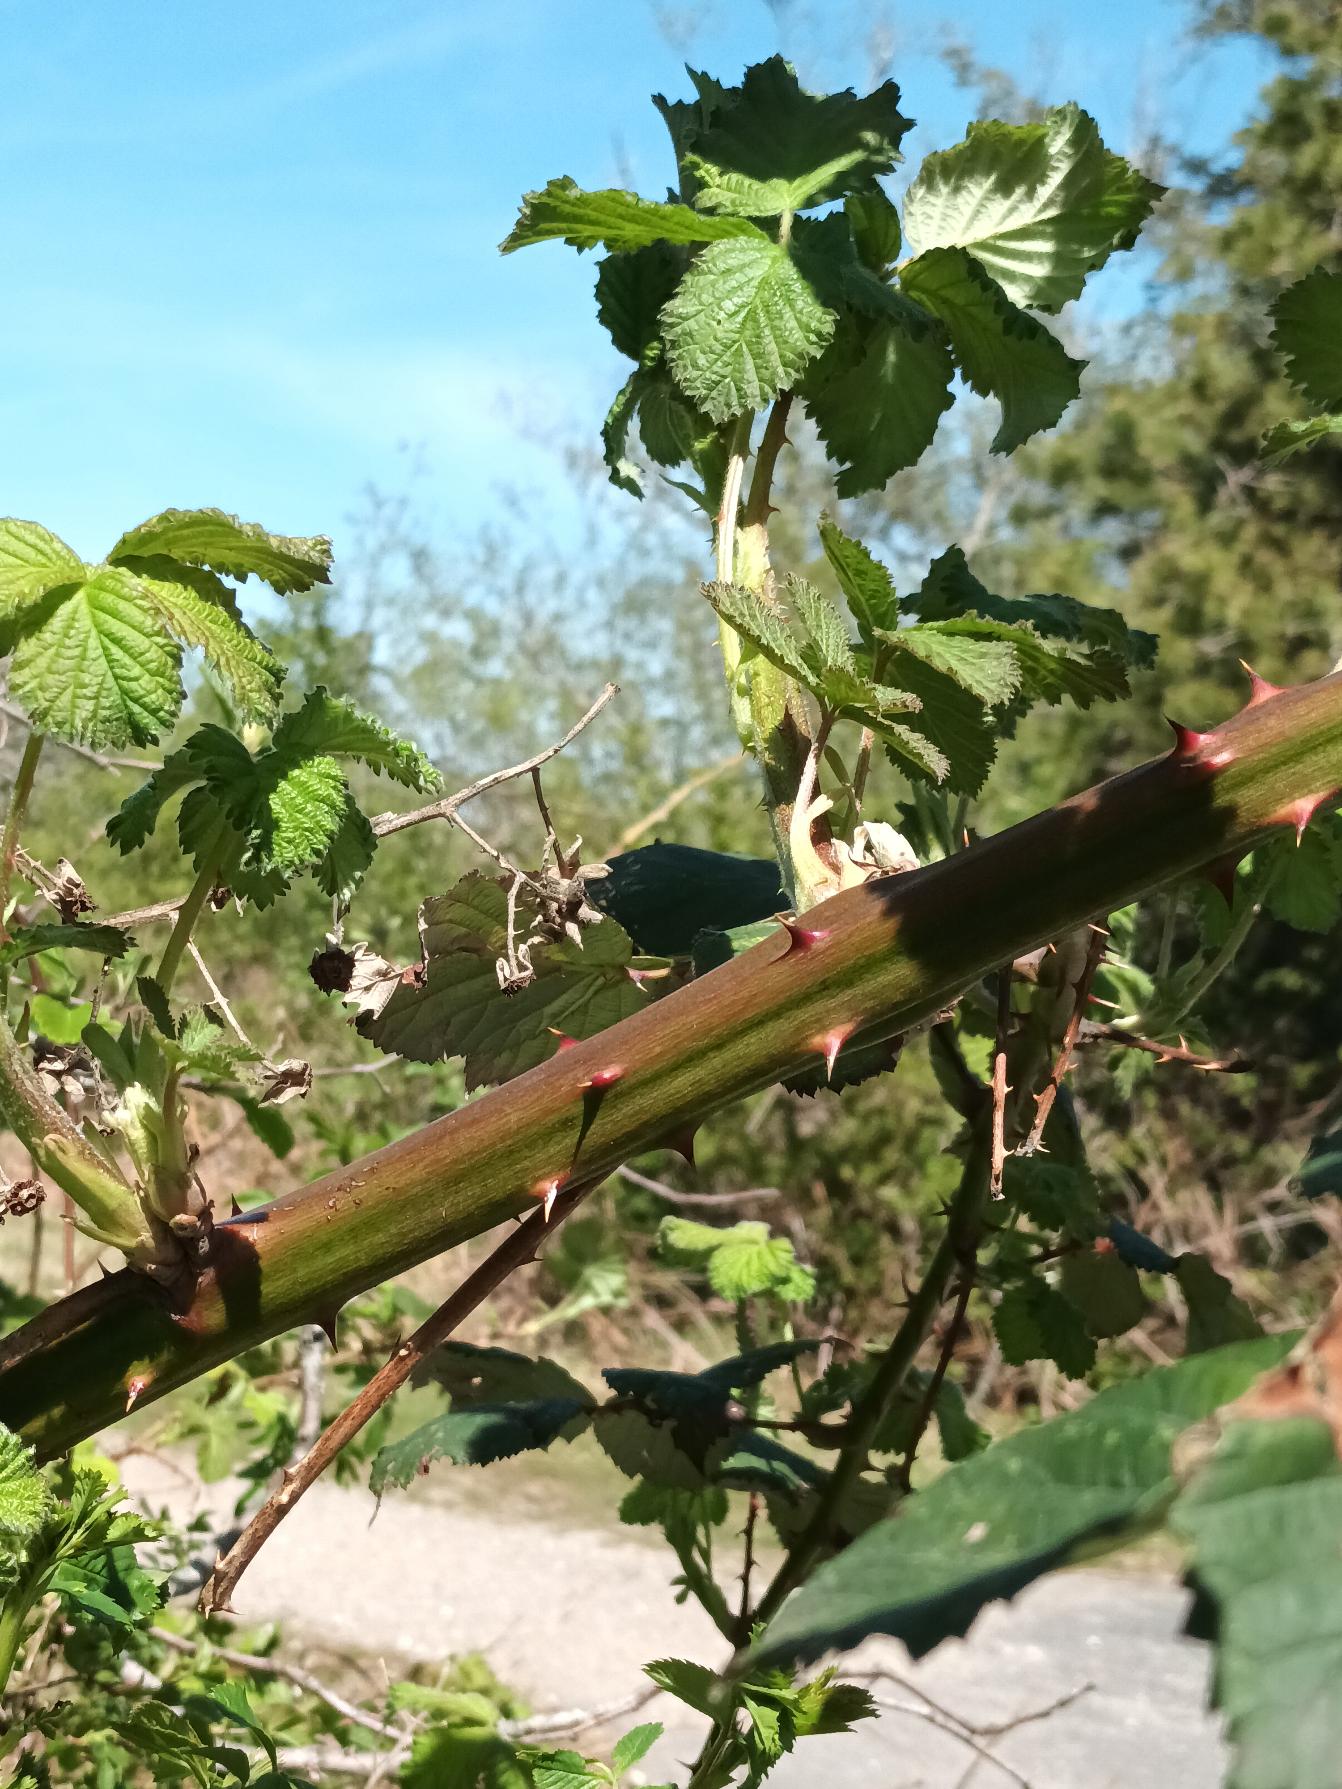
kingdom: Plantae
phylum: Tracheophyta
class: Magnoliopsida
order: Rosales
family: Rosaceae
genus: Rubus
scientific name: Rubus armeniacus
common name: Armensk brombær
